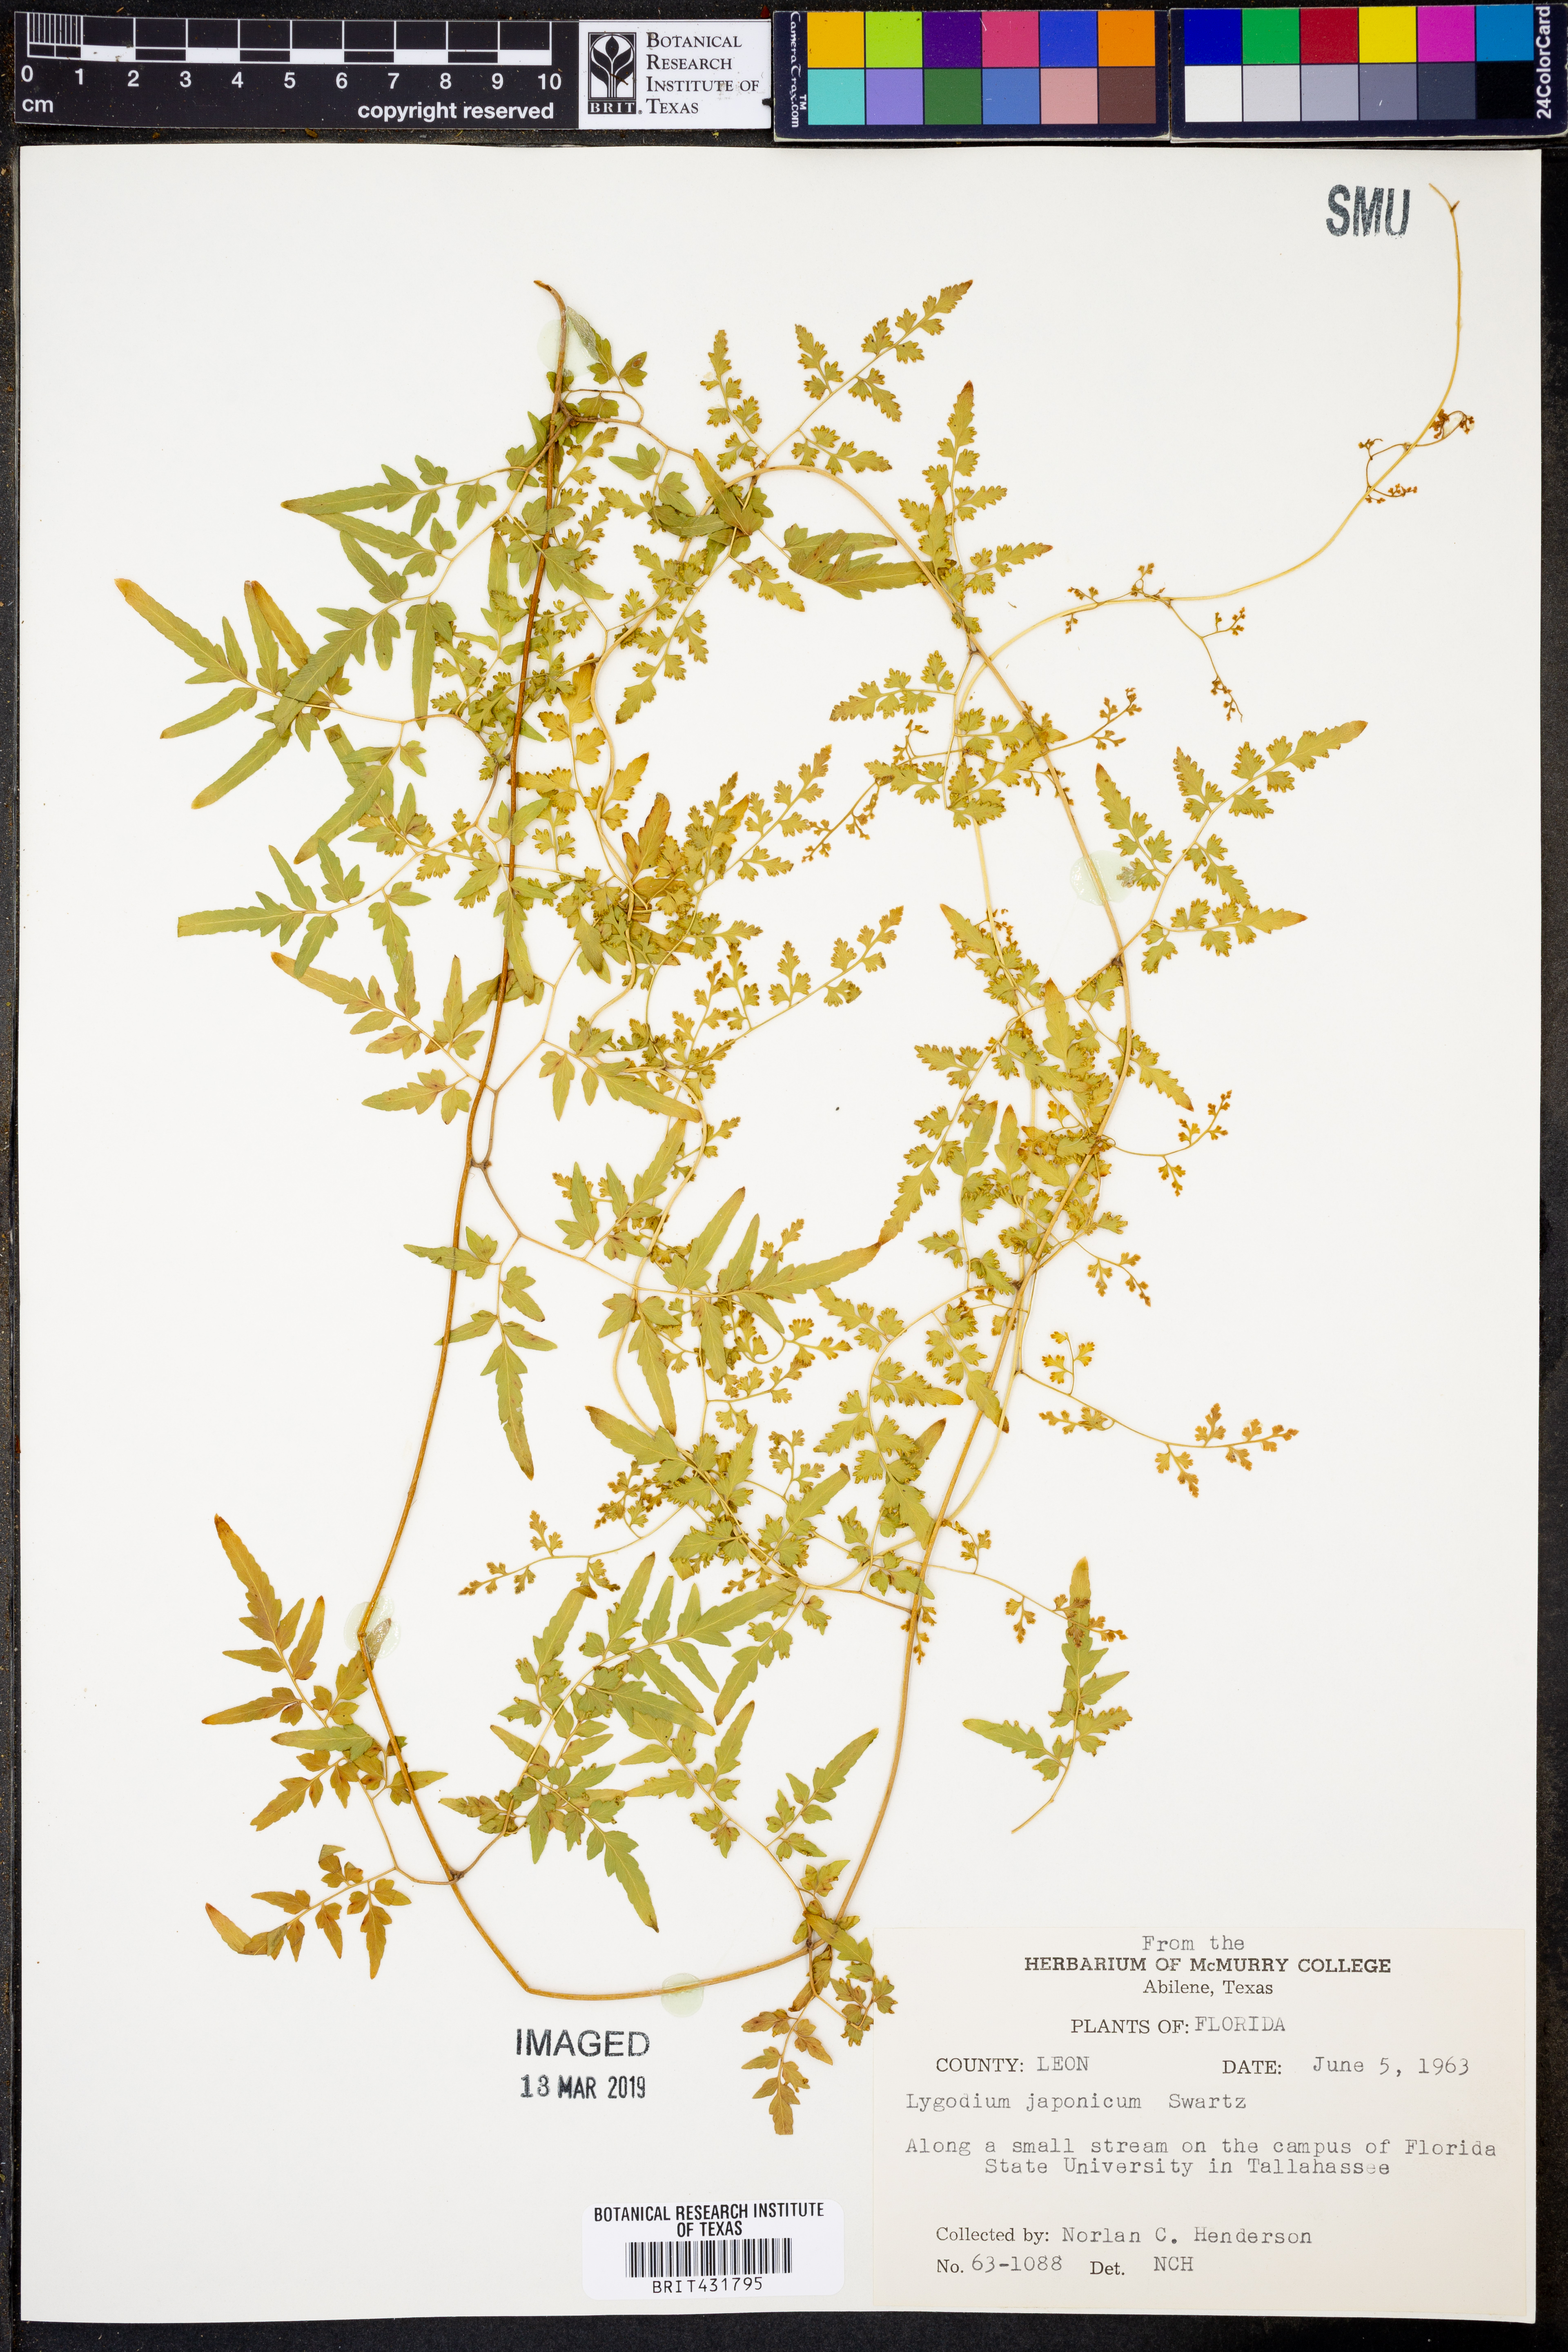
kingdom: Plantae
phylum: Tracheophyta
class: Polypodiopsida
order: Schizaeales
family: Lygodiaceae
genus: Lygodium
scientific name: Lygodium japonicum
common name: Japanese climbing fern
